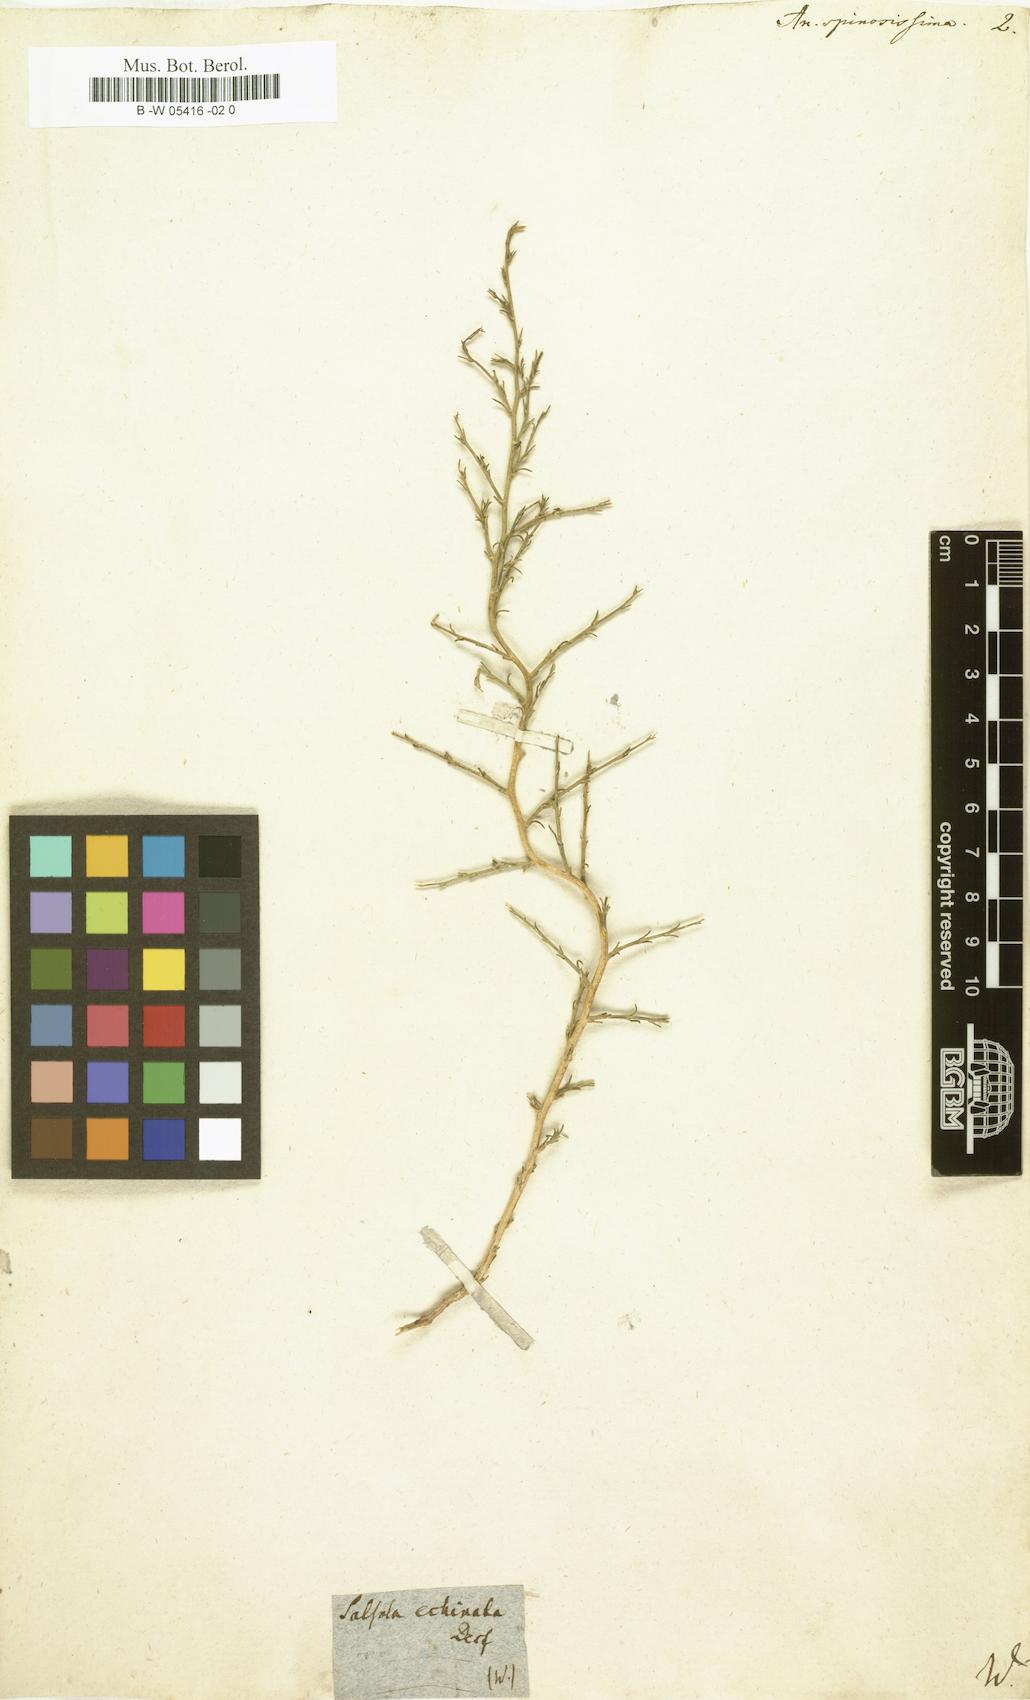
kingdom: Plantae
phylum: Tracheophyta
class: Magnoliopsida
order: Caryophyllales
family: Amaranthaceae
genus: Noaea
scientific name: Noaea mucronata
